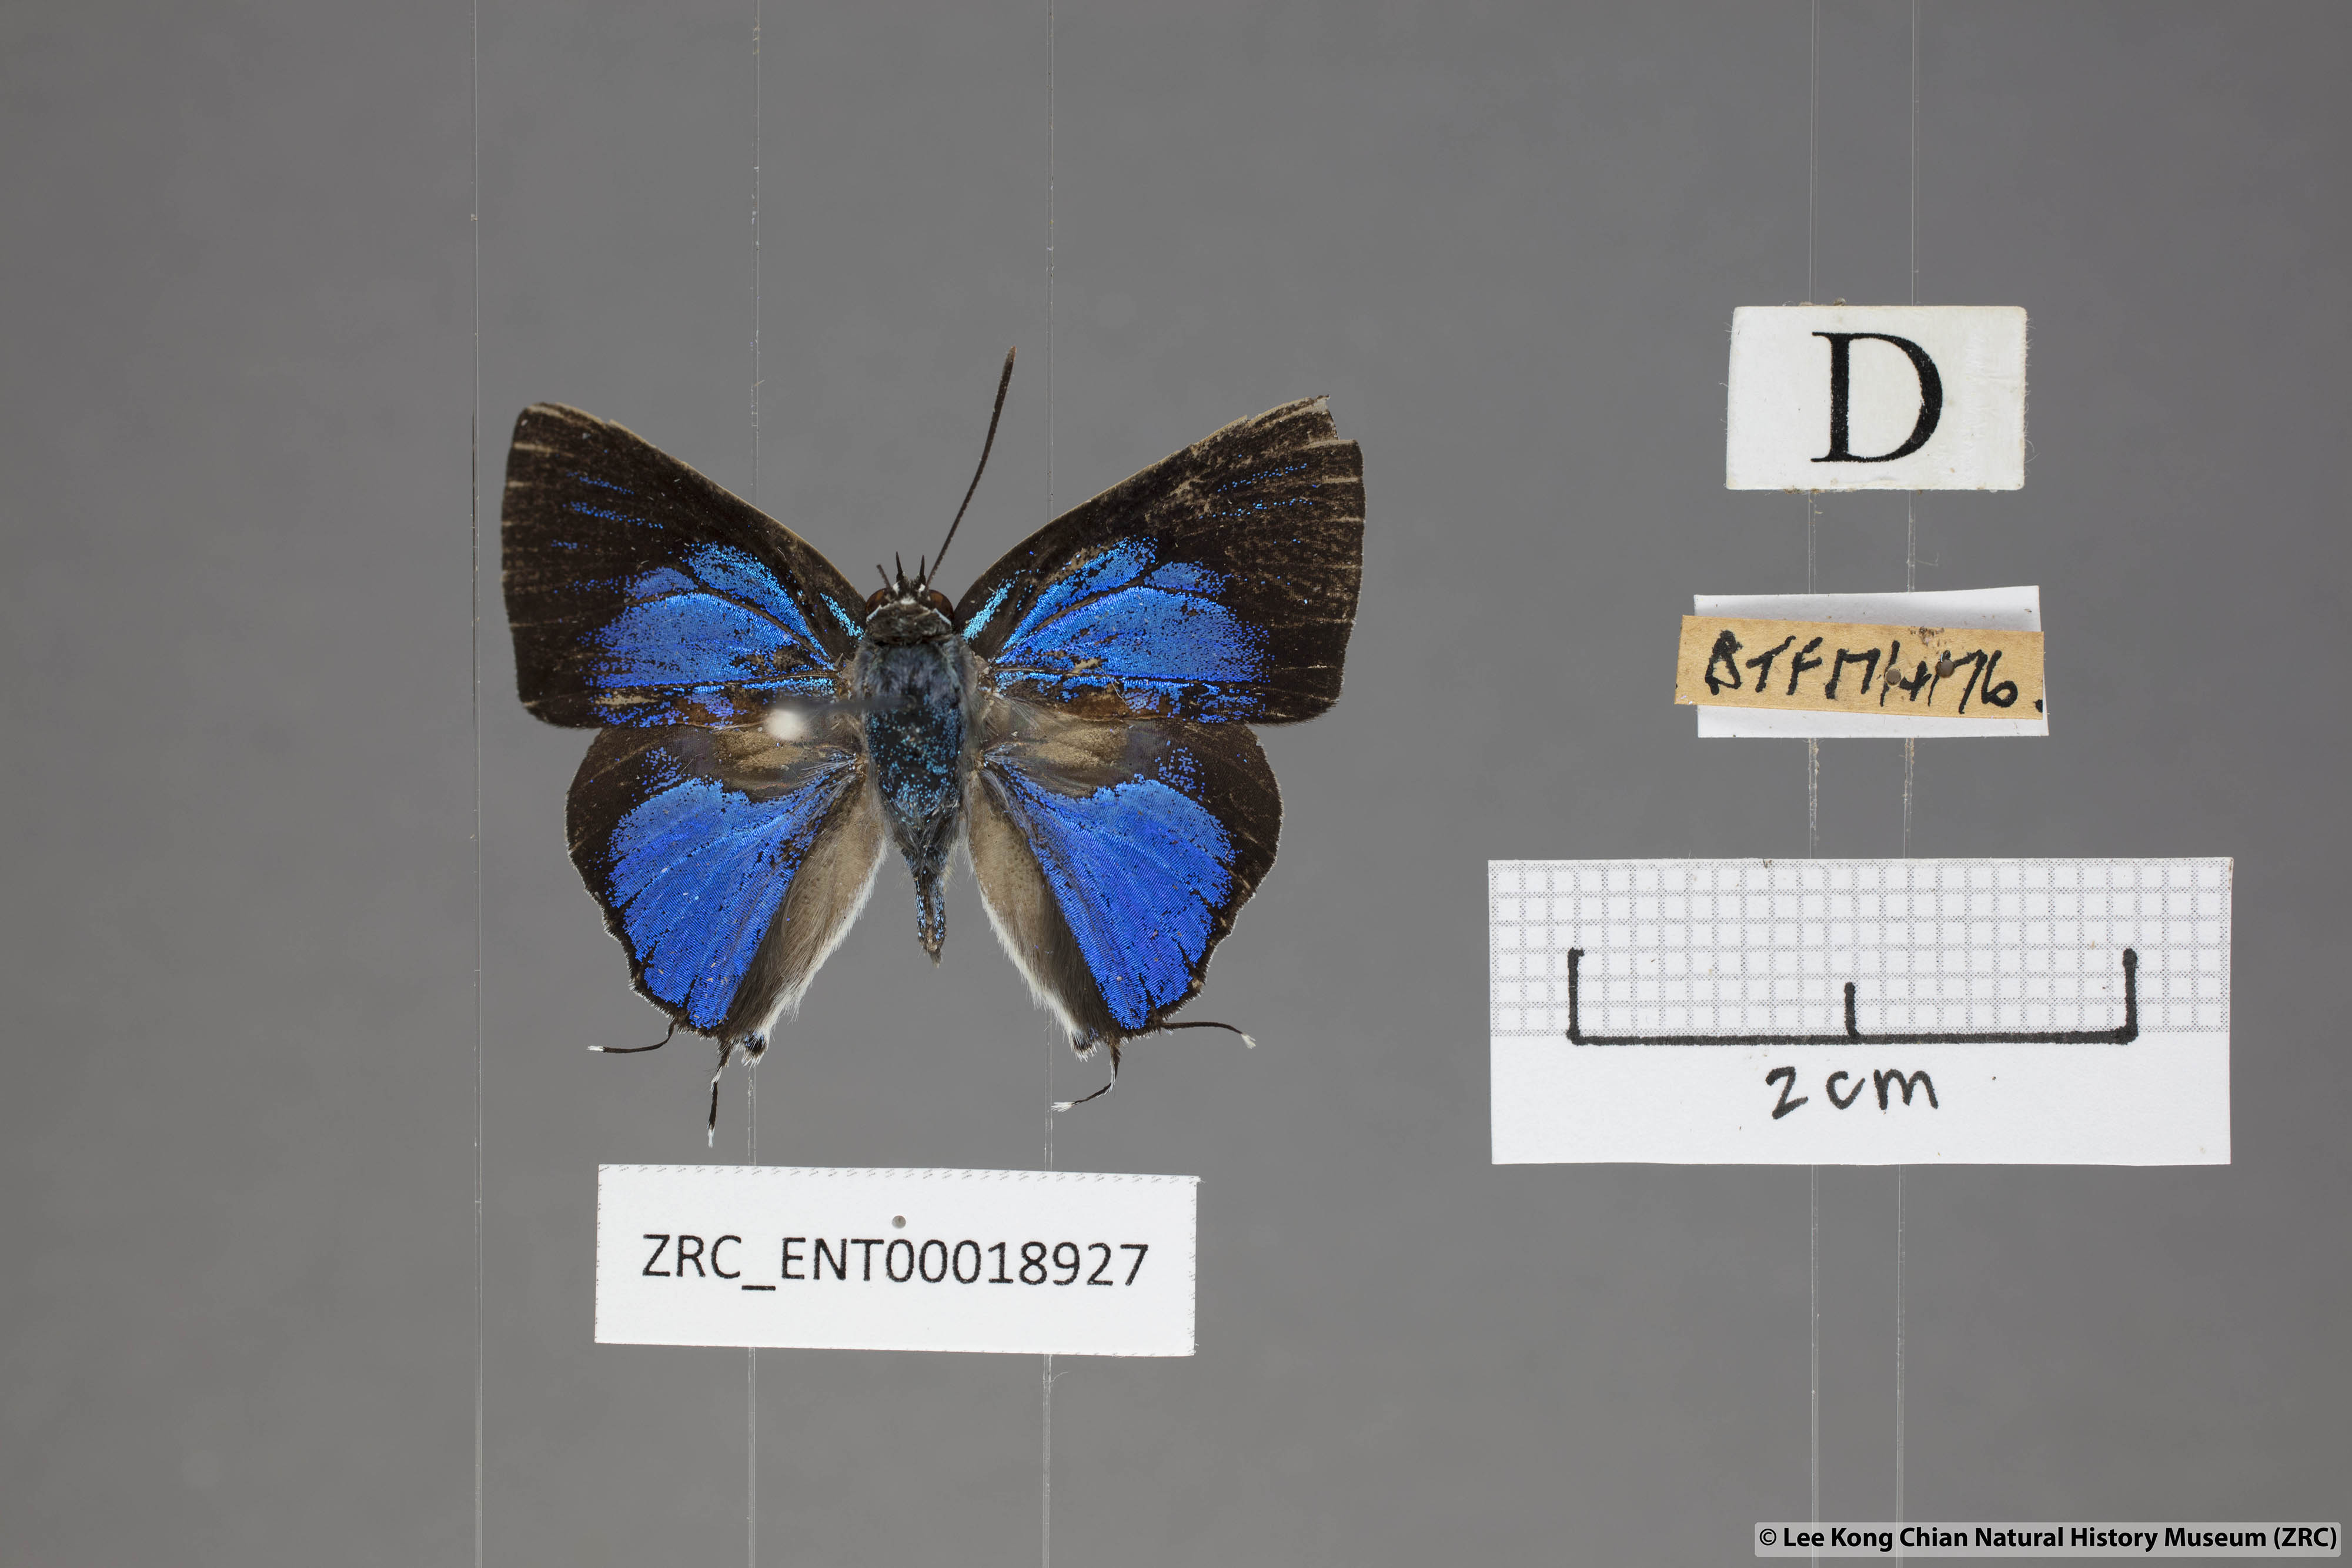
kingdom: Animalia
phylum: Arthropoda
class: Insecta
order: Lepidoptera
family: Lycaenidae
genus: Ancema
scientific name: Ancema blanka
